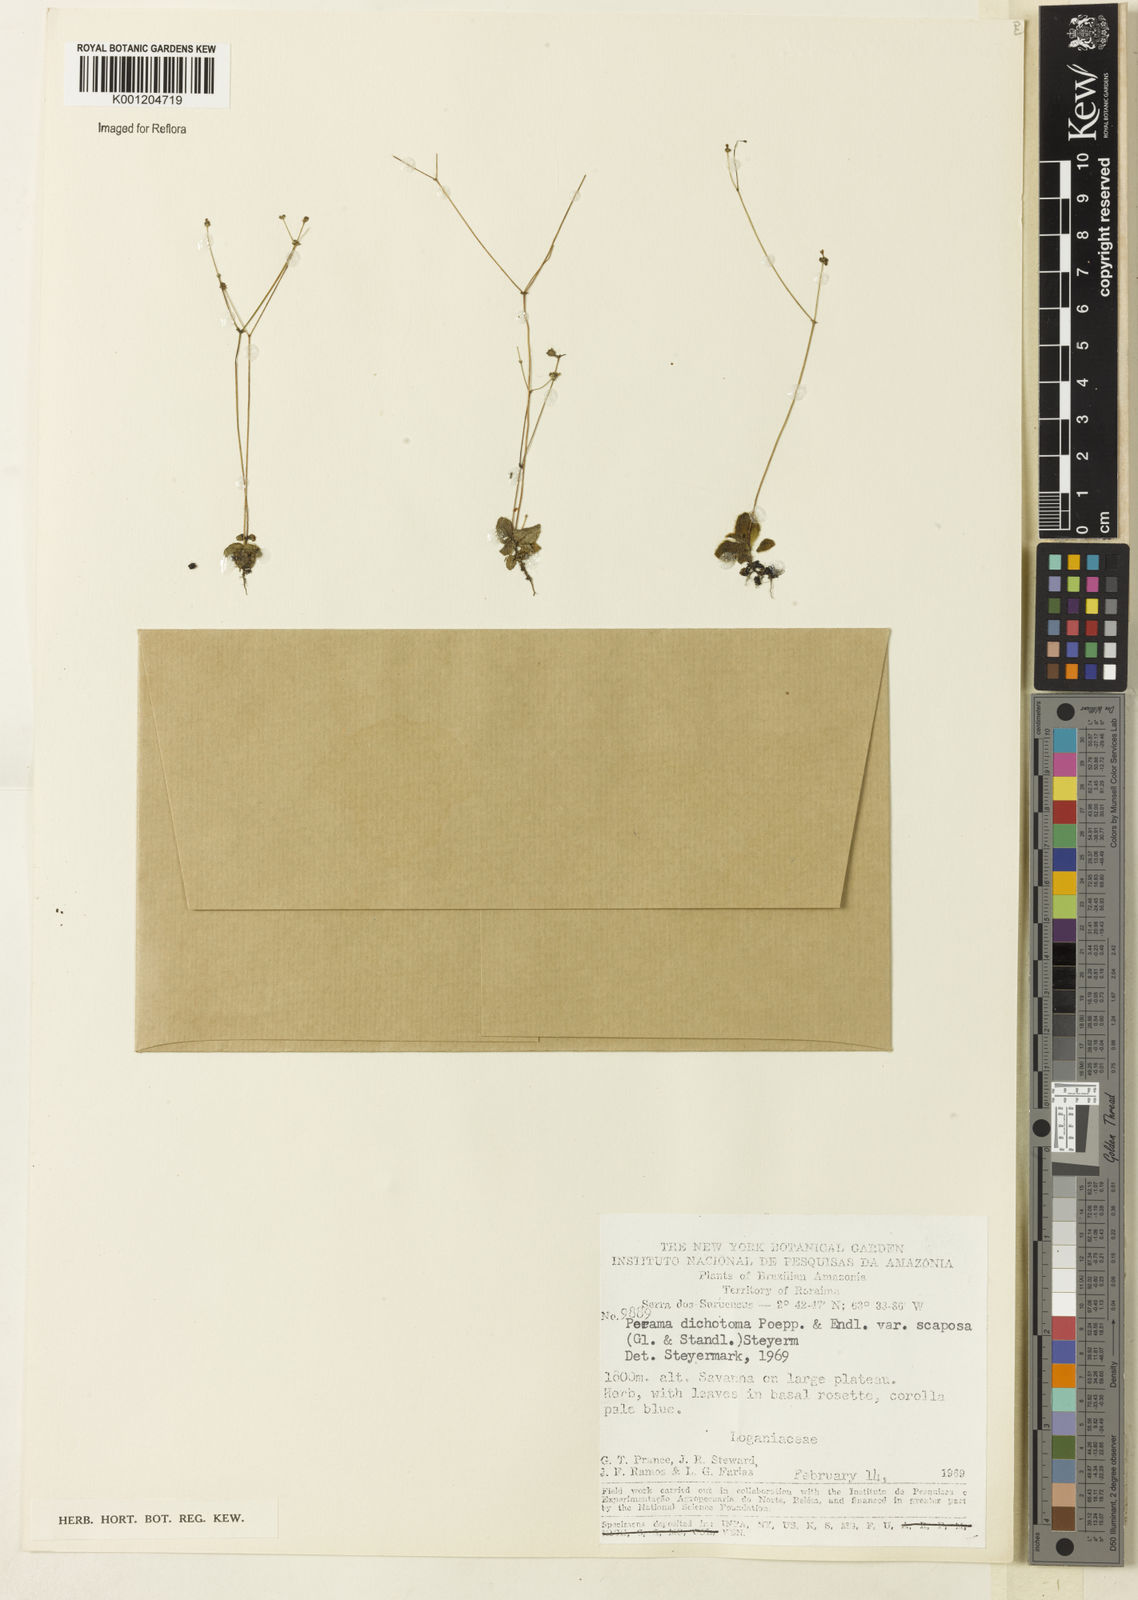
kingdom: Plantae
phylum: Tracheophyta
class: Magnoliopsida
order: Gentianales
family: Rubiaceae
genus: Perama
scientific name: Perama dichotoma
